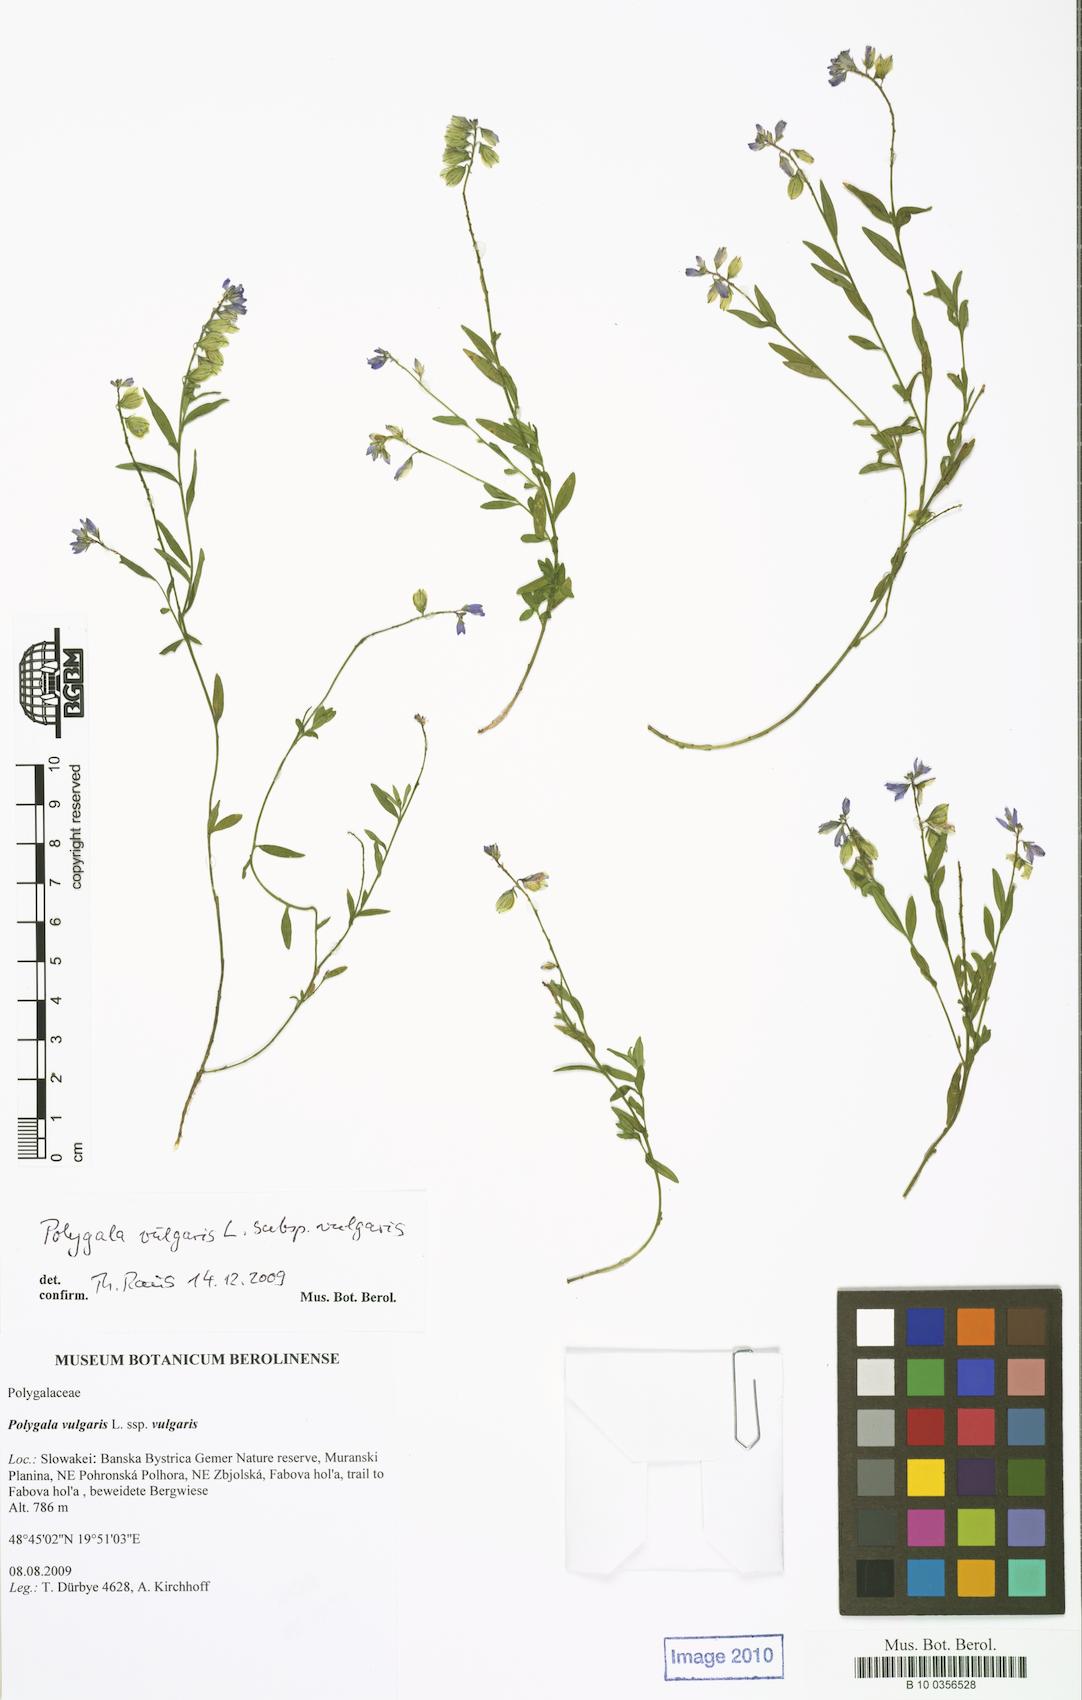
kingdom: Plantae
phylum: Tracheophyta
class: Magnoliopsida
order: Fabales
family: Polygalaceae
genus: Polygala
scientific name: Polygala vulgaris
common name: Common milkwort
